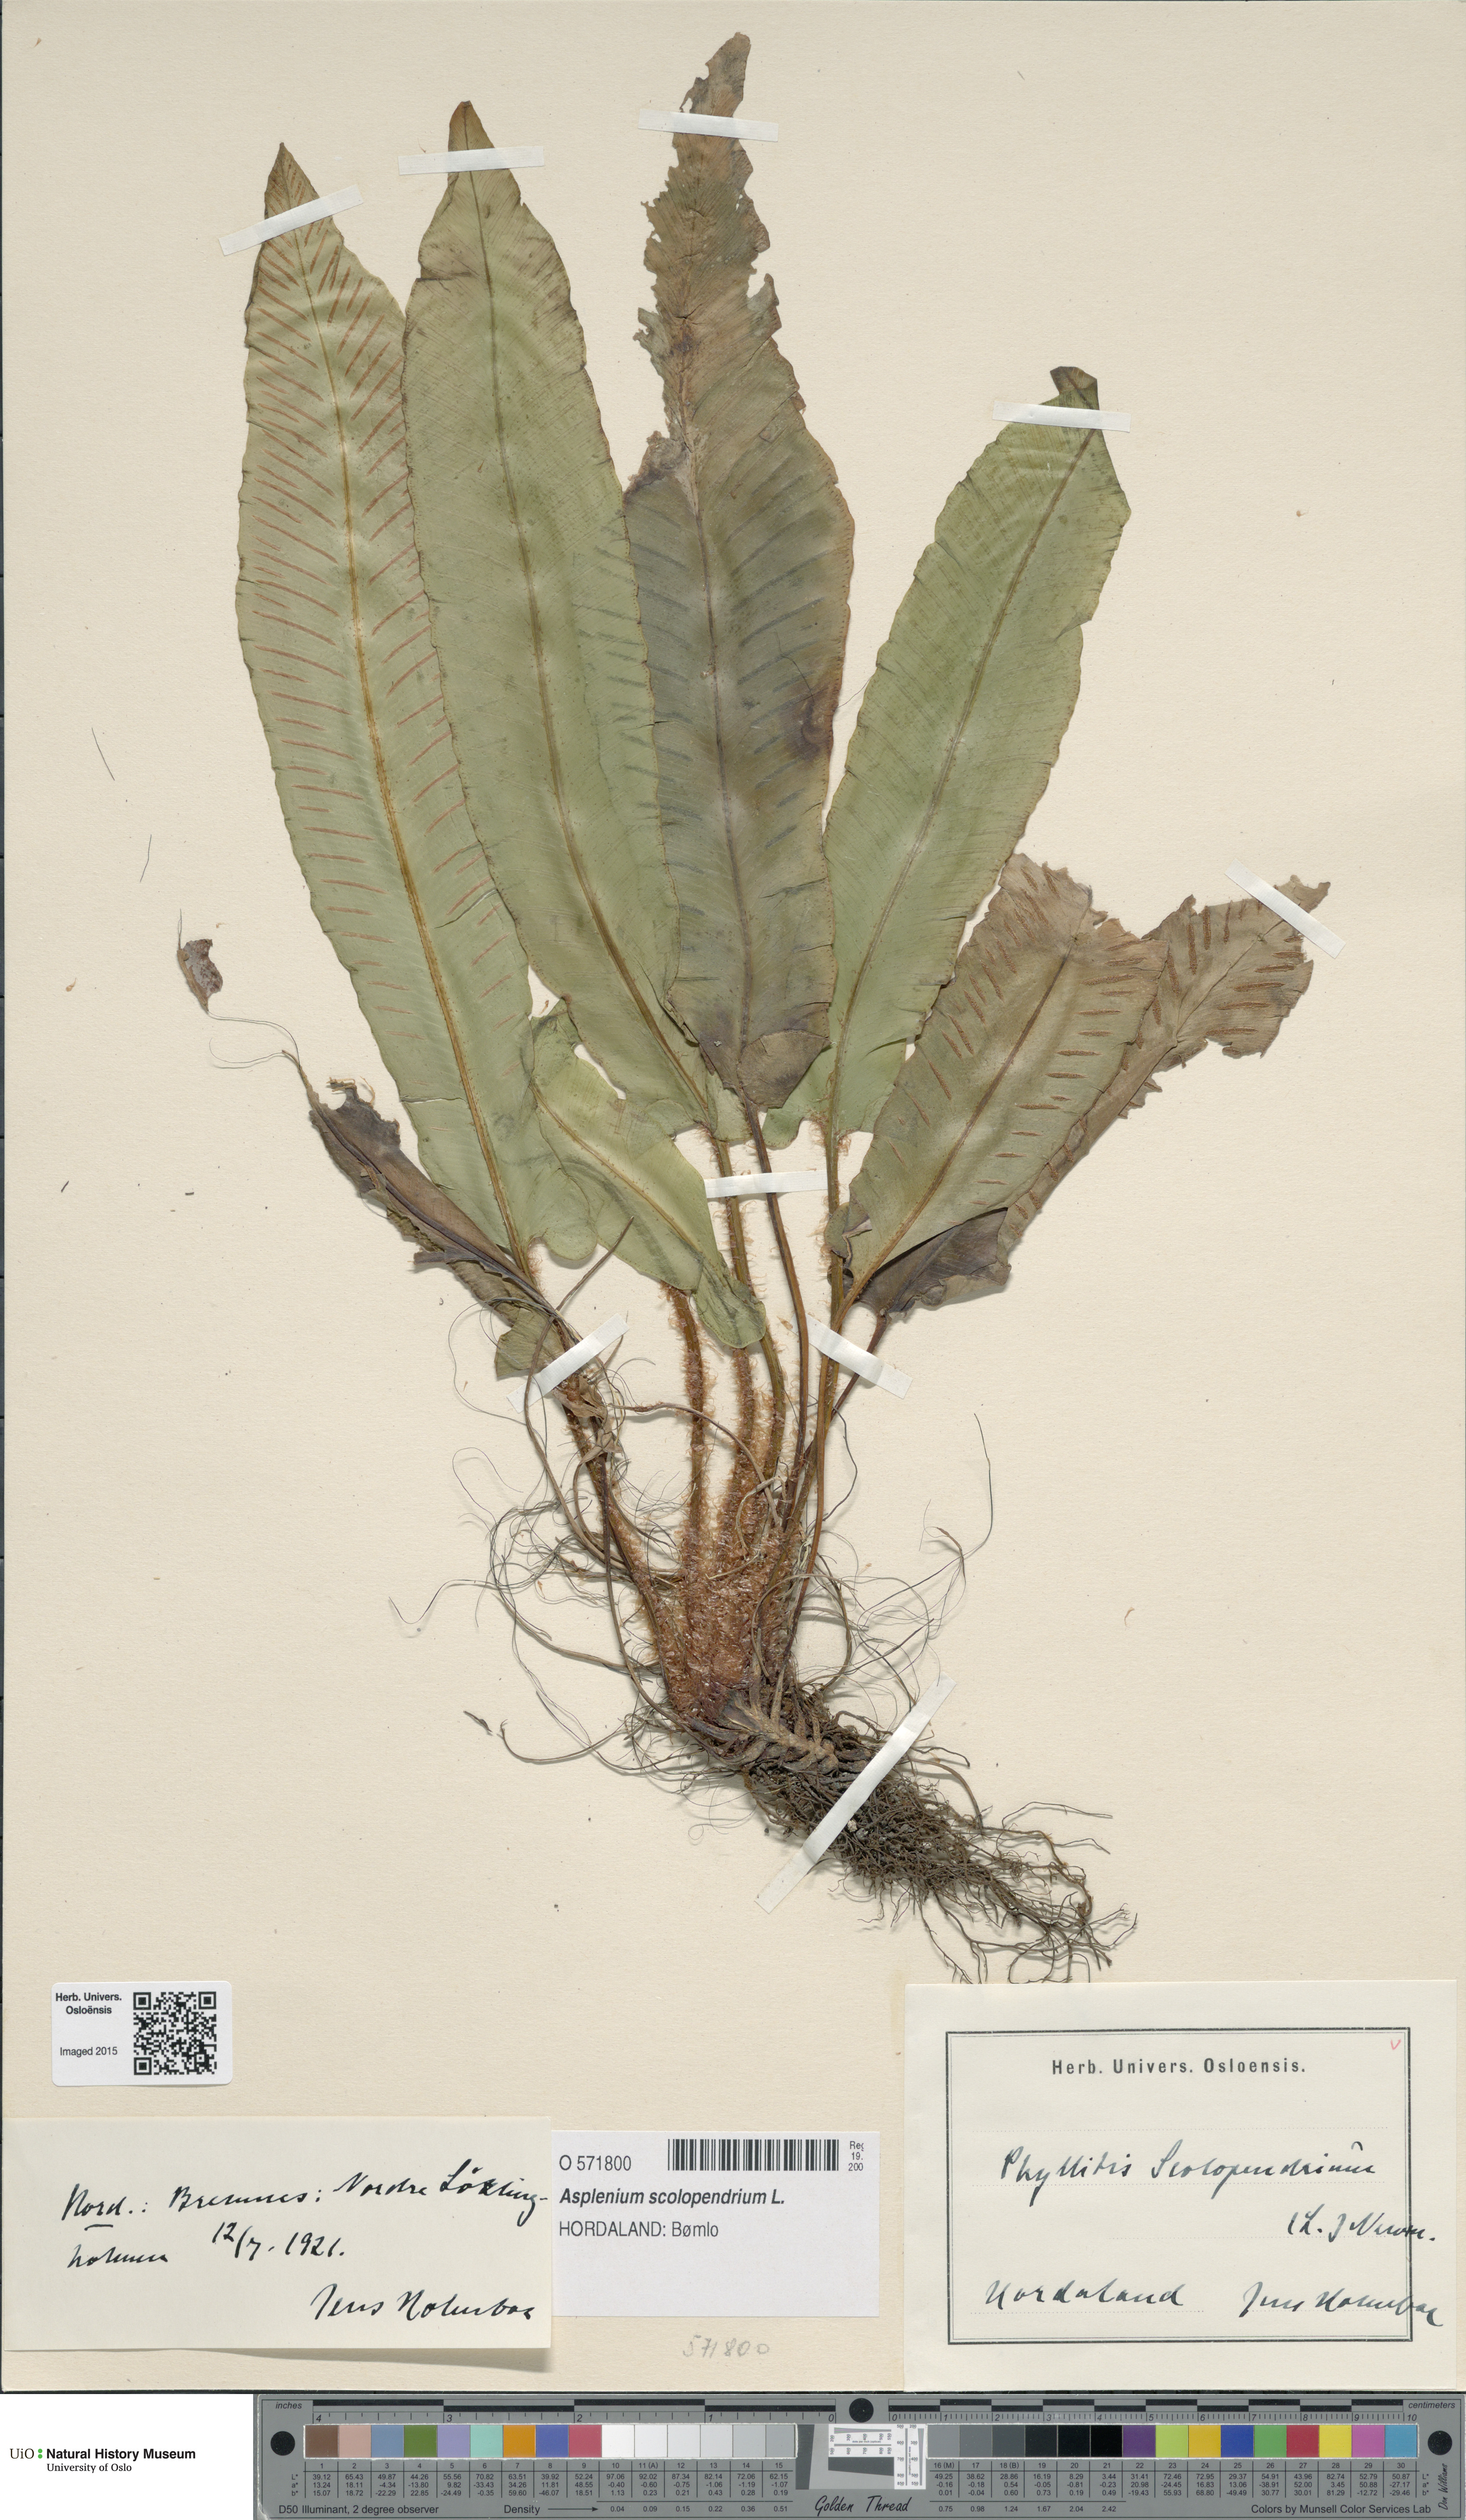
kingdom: Plantae
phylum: Tracheophyta
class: Polypodiopsida
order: Polypodiales
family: Aspleniaceae
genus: Asplenium
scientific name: Asplenium scolopendrium
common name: Hart's-tongue fern
